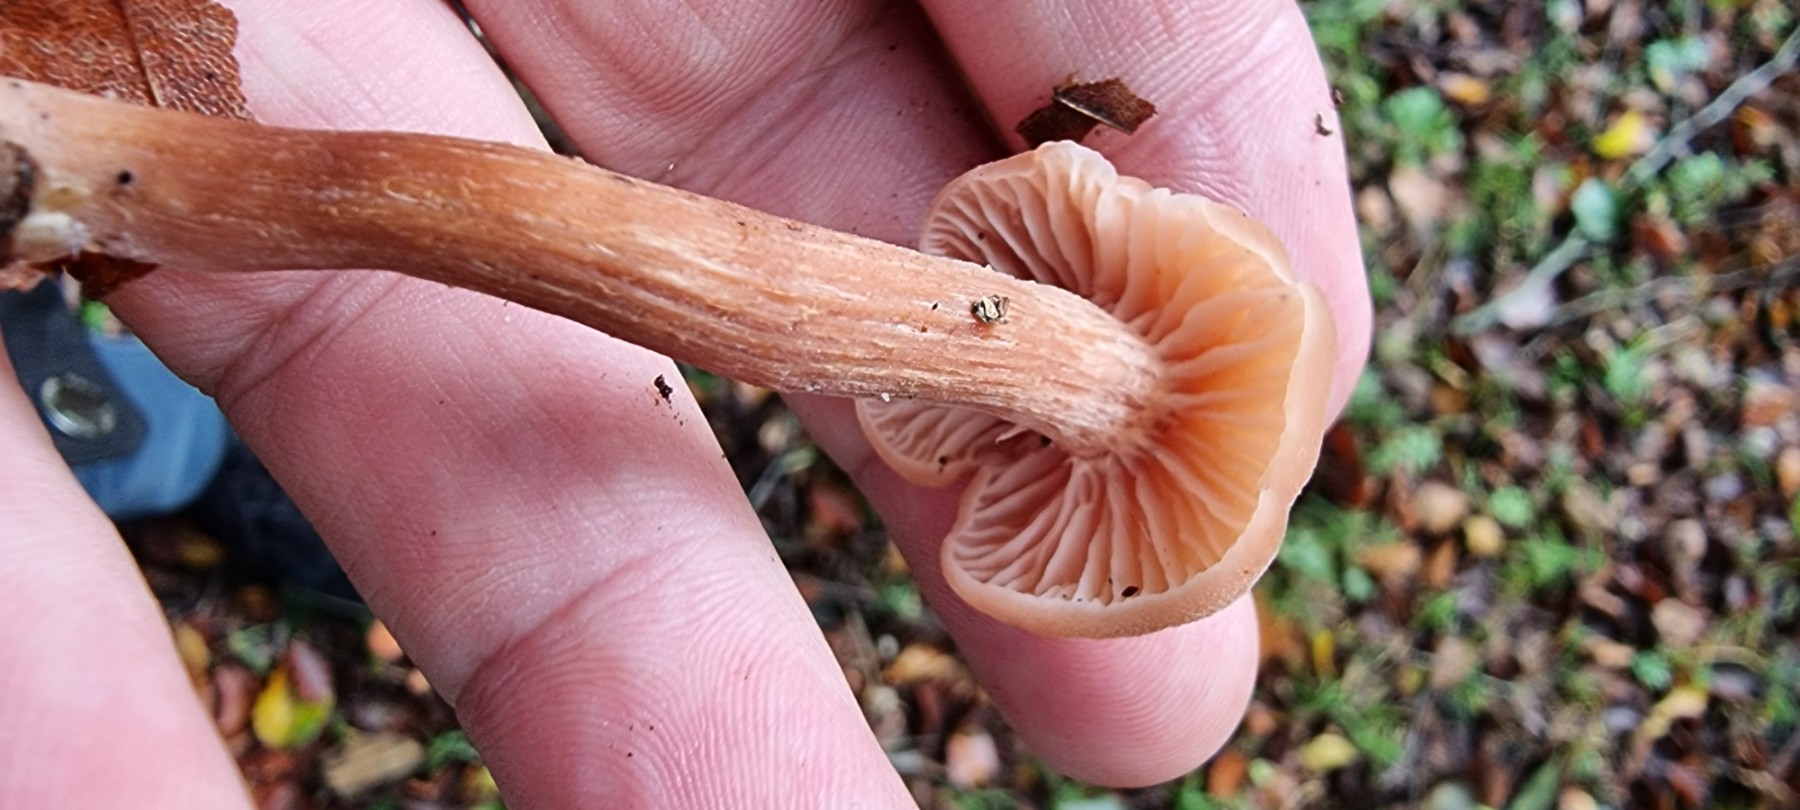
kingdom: Fungi
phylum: Basidiomycota
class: Agaricomycetes
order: Agaricales
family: Hydnangiaceae
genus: Laccaria
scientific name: Laccaria proxima
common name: stor ametysthat
